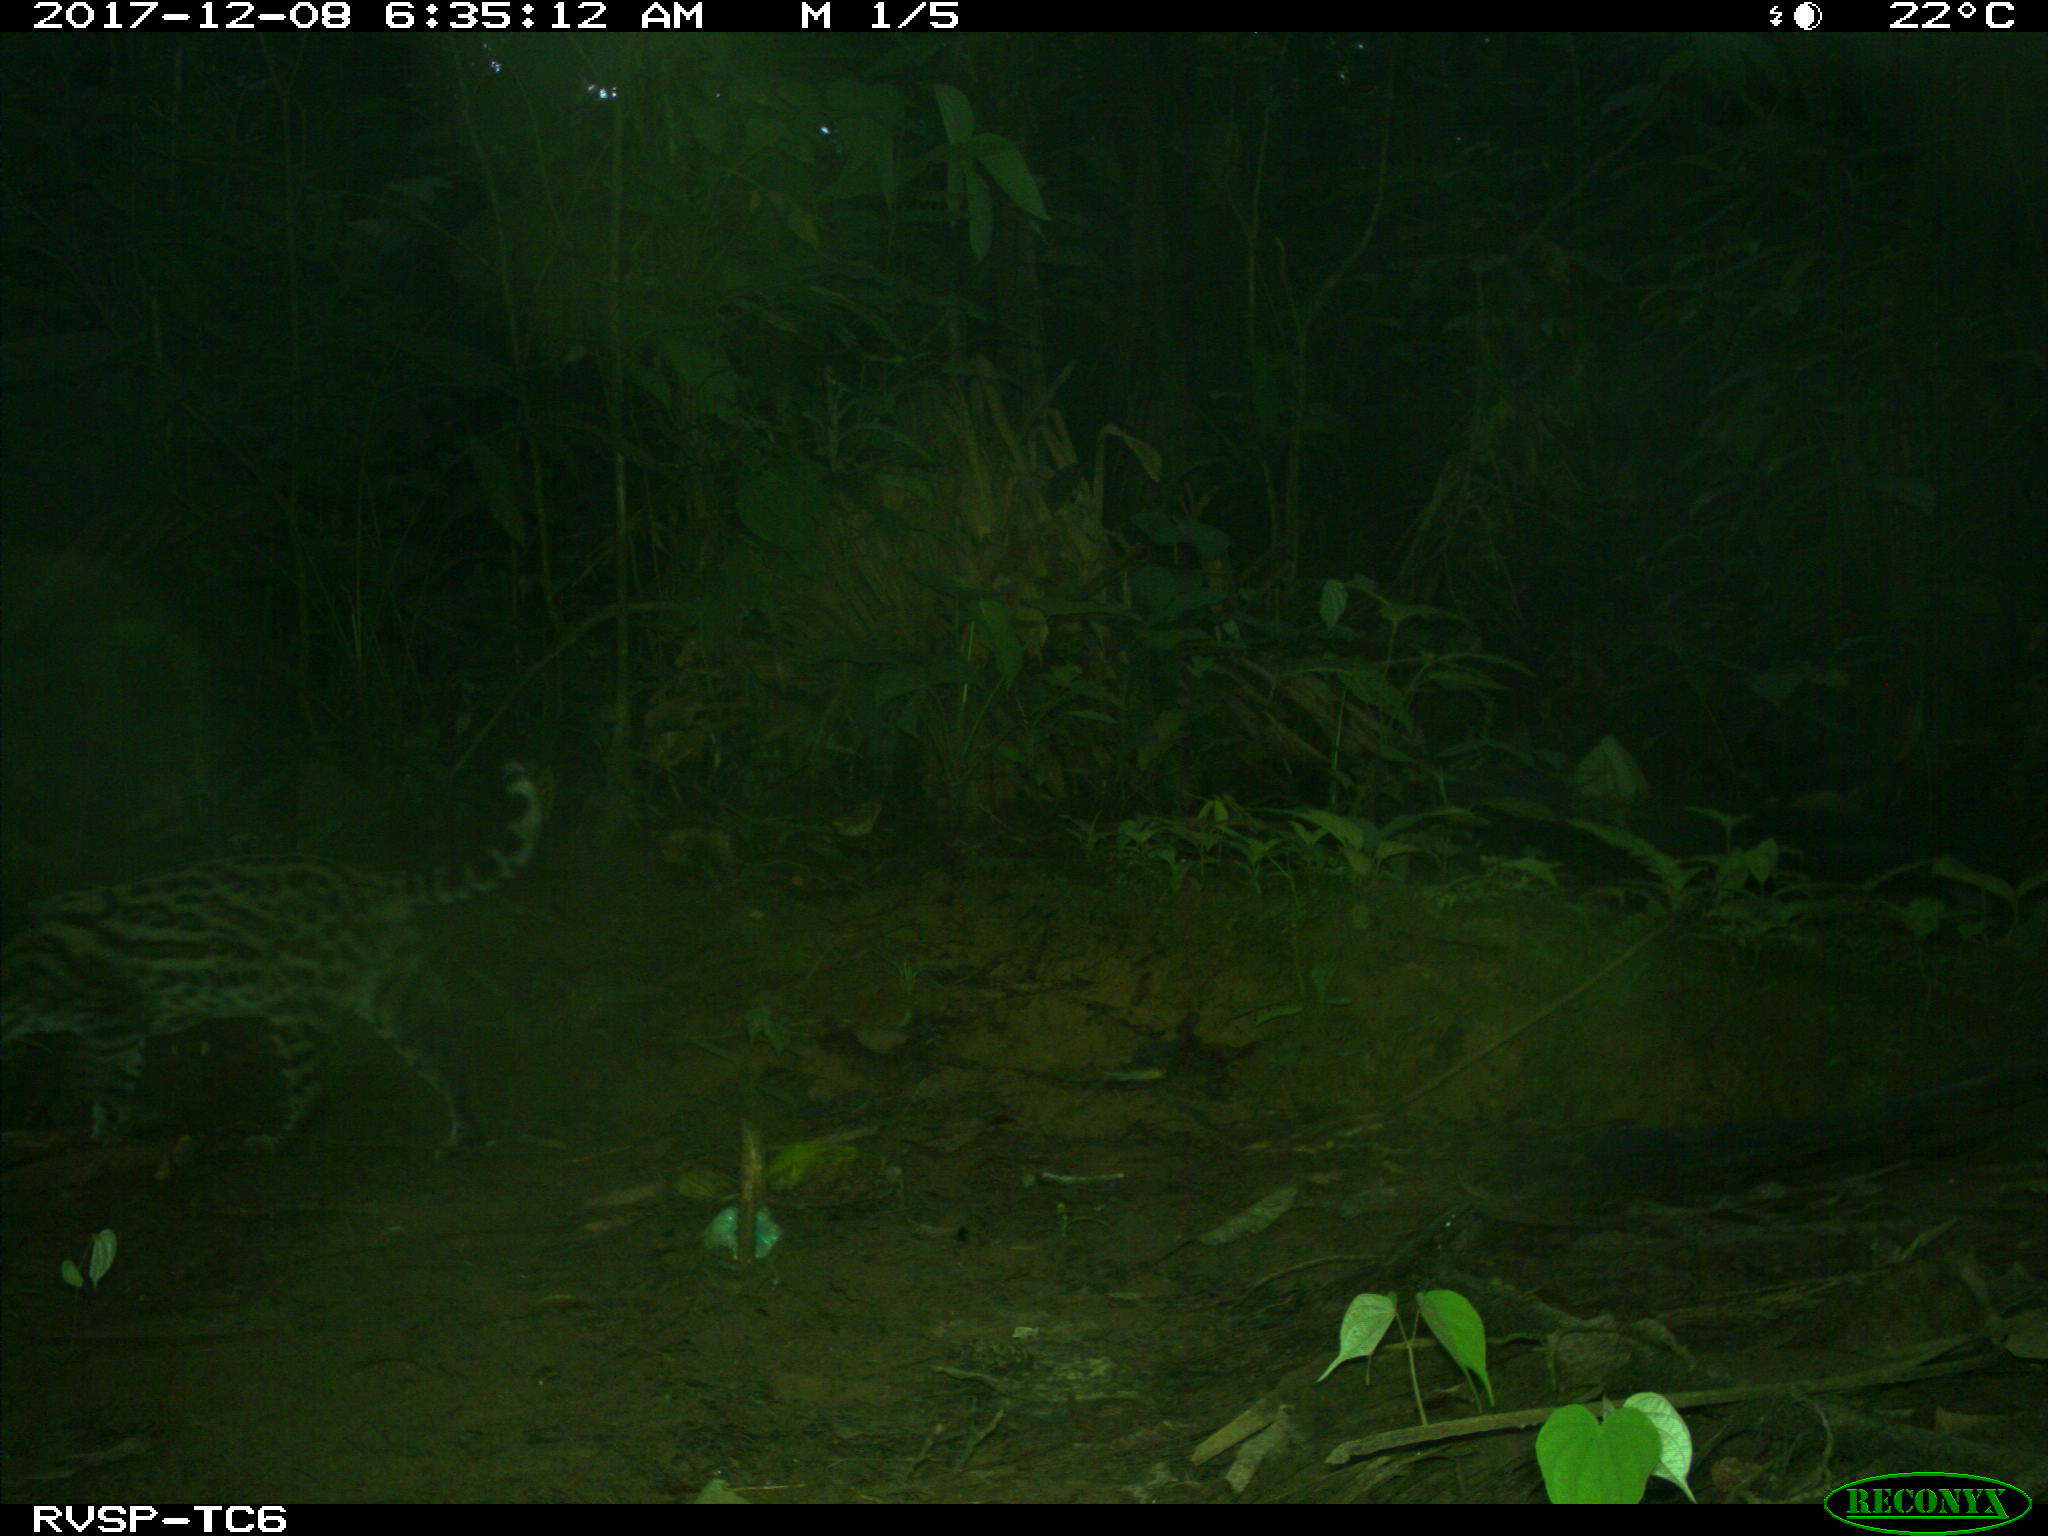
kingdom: Animalia
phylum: Chordata
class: Mammalia
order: Carnivora
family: Felidae
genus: Leopardus
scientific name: Leopardus pardalis
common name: Ocelot
